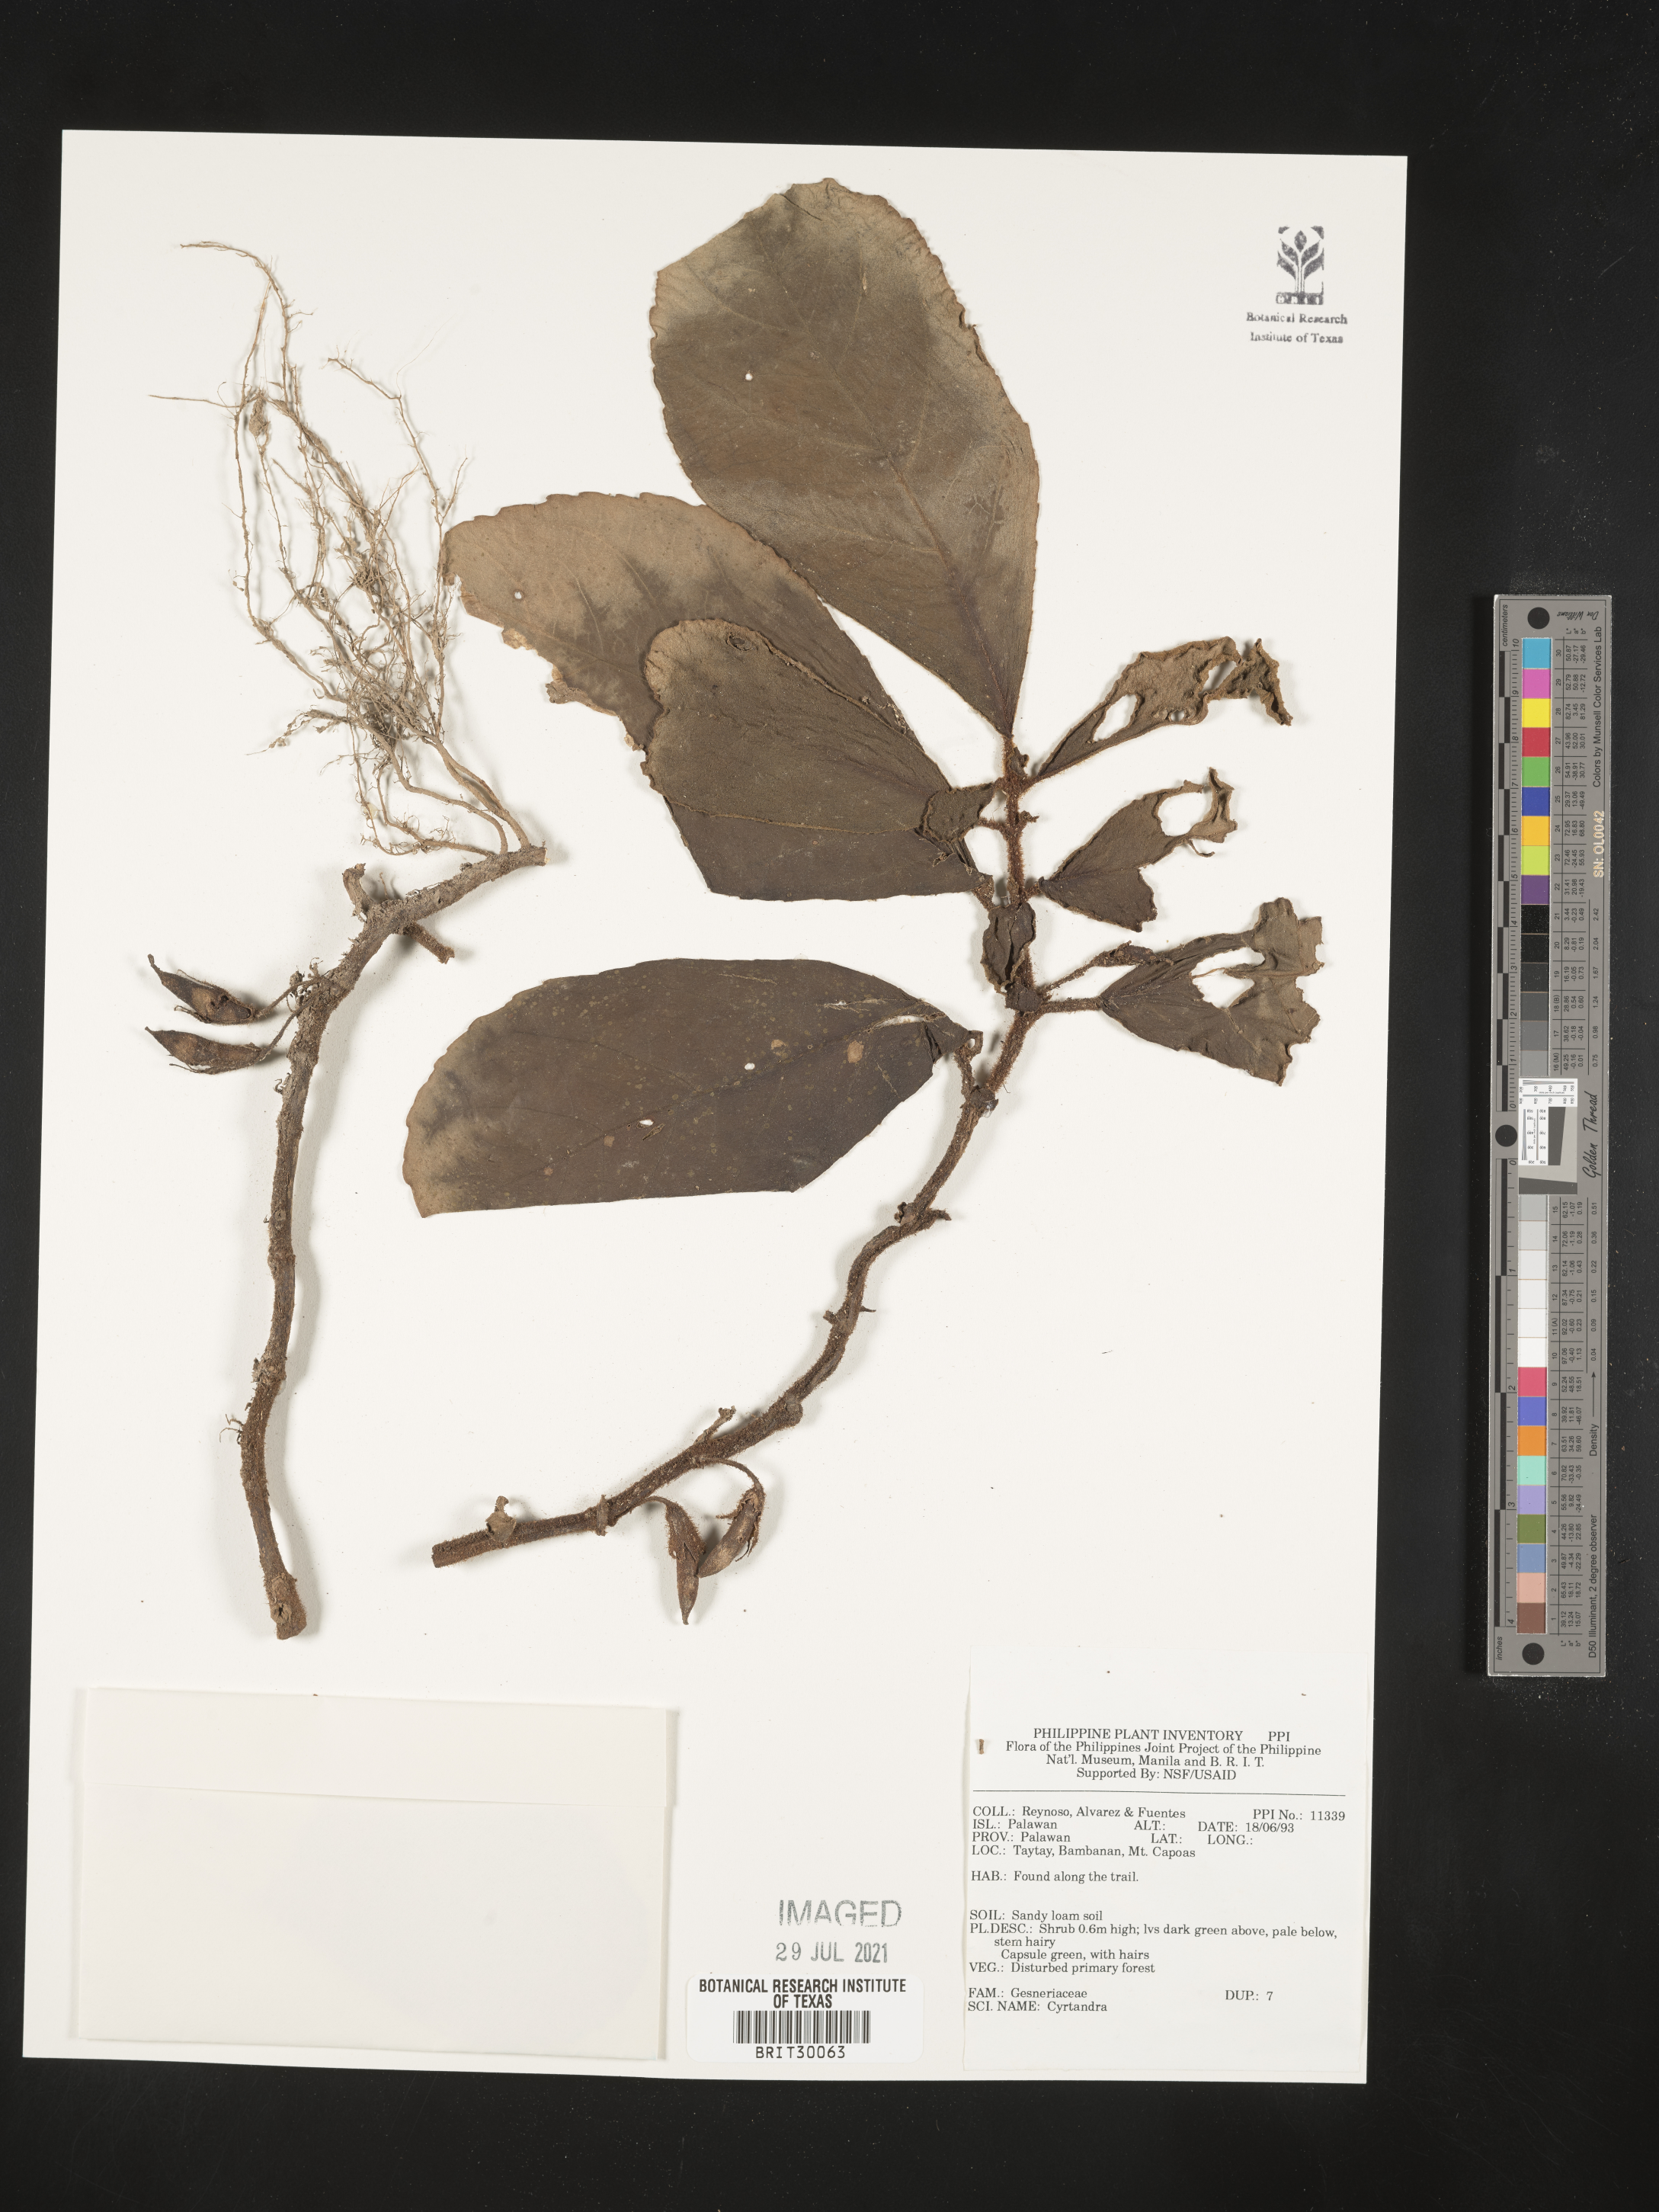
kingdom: Plantae
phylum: Tracheophyta
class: Magnoliopsida
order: Lamiales
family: Gesneriaceae
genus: Cyrtandra
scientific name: Cyrtandra
